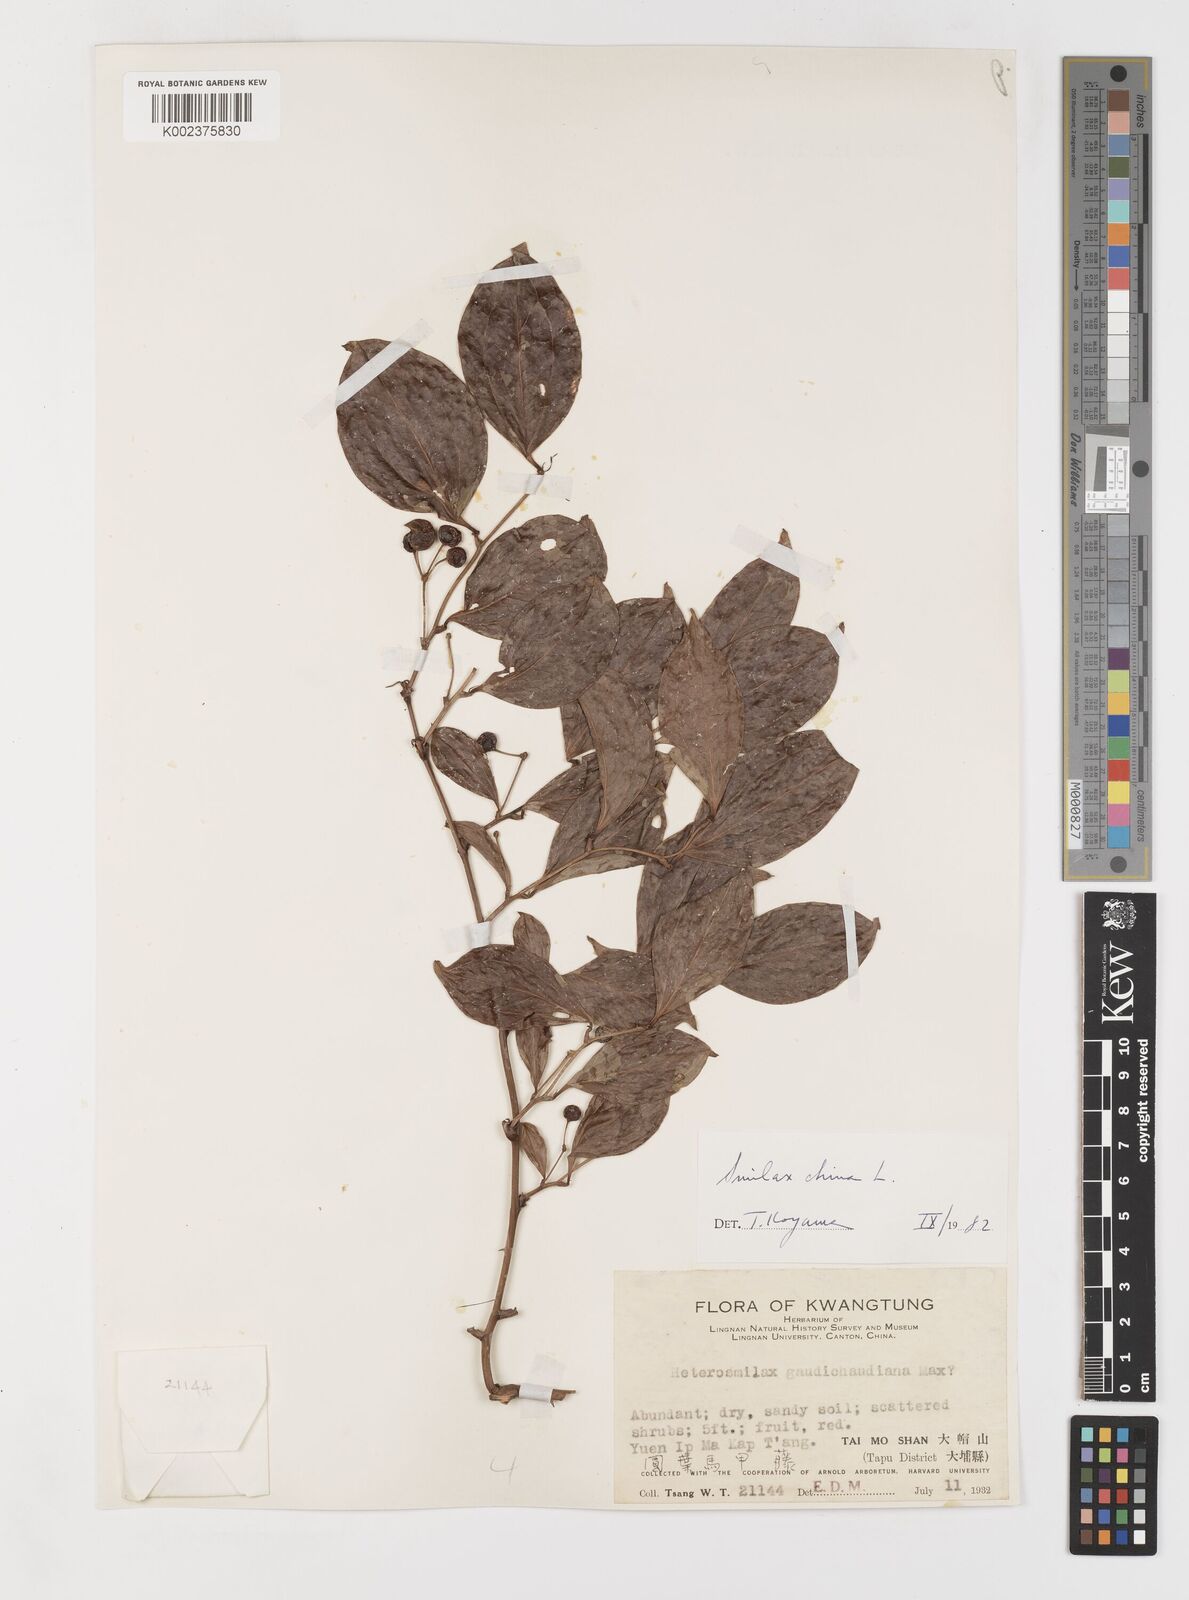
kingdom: Plantae
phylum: Tracheophyta
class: Liliopsida
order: Liliales
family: Smilacaceae
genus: Smilax
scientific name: Smilax china
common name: Chinaroot
